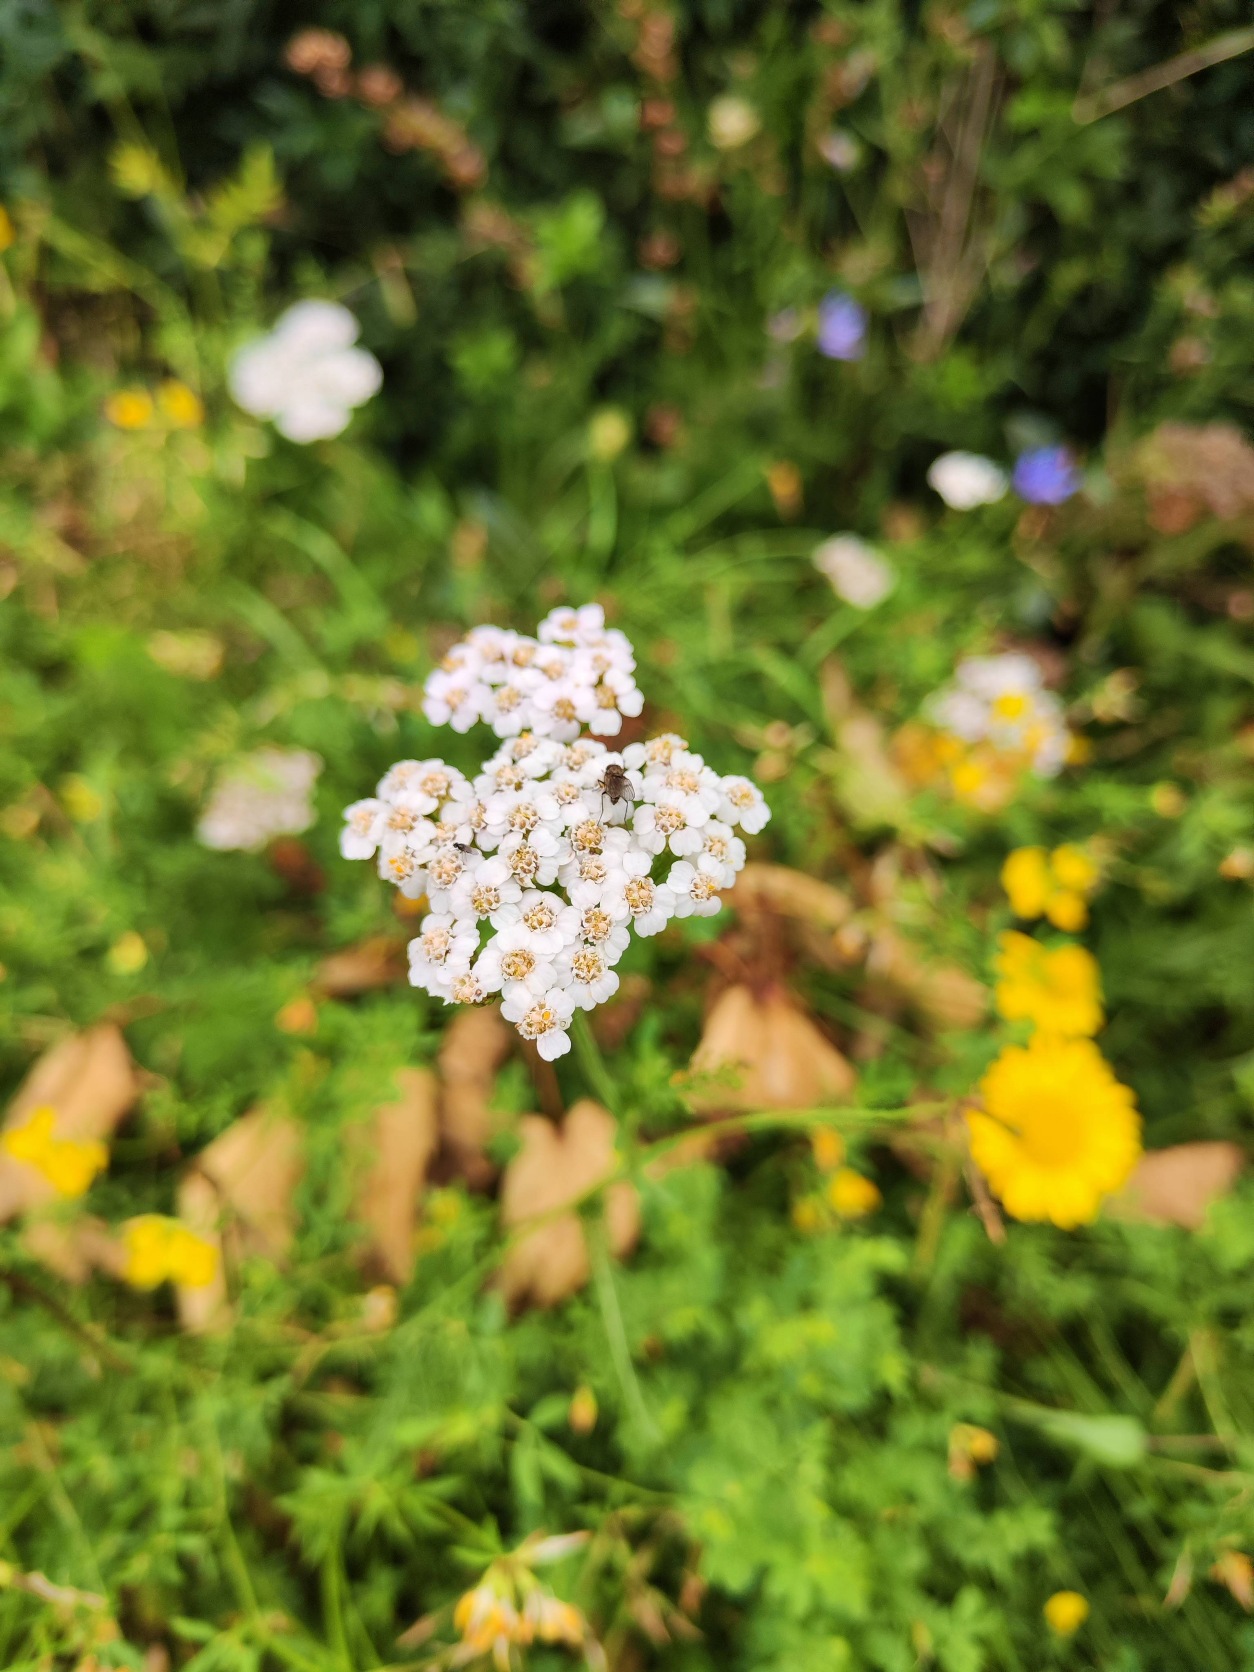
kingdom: Plantae
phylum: Tracheophyta
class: Magnoliopsida
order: Asterales
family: Asteraceae
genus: Achillea
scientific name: Achillea millefolium
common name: Almindelig røllike
